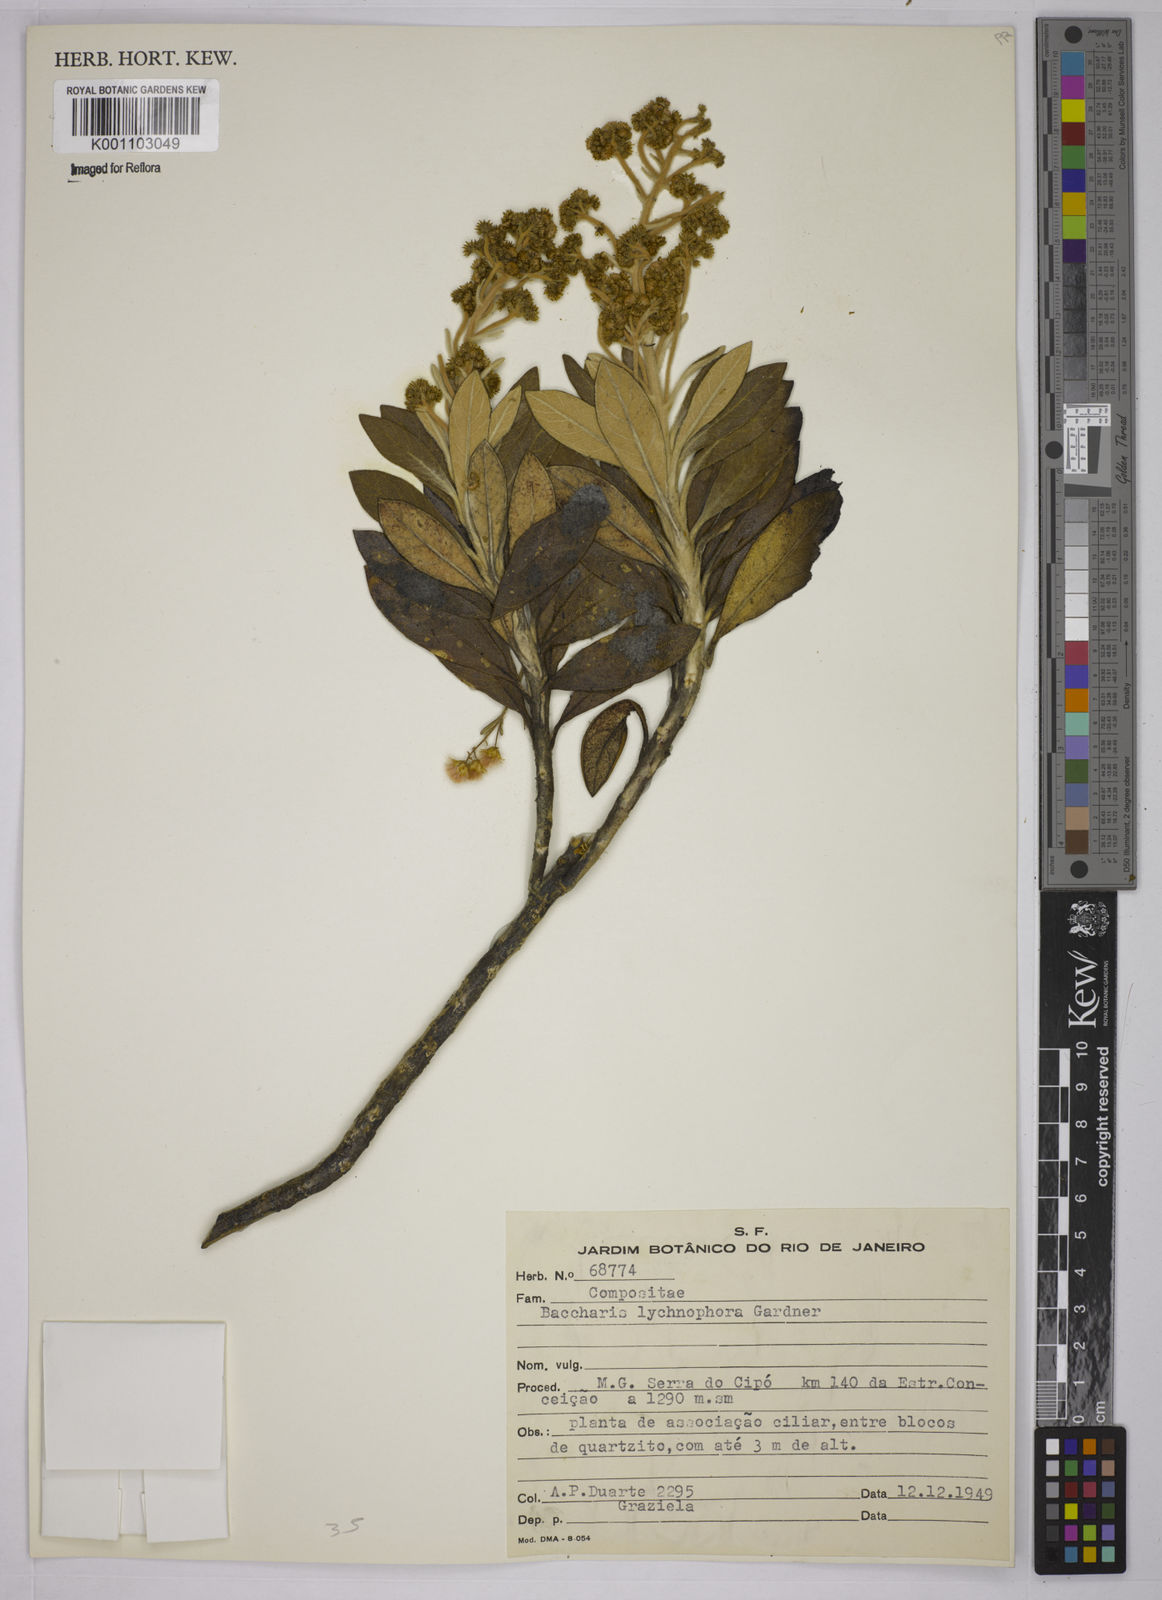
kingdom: Plantae
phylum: Tracheophyta
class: Magnoliopsida
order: Asterales
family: Asteraceae
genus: Baccharis
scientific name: Baccharis lychnophora
